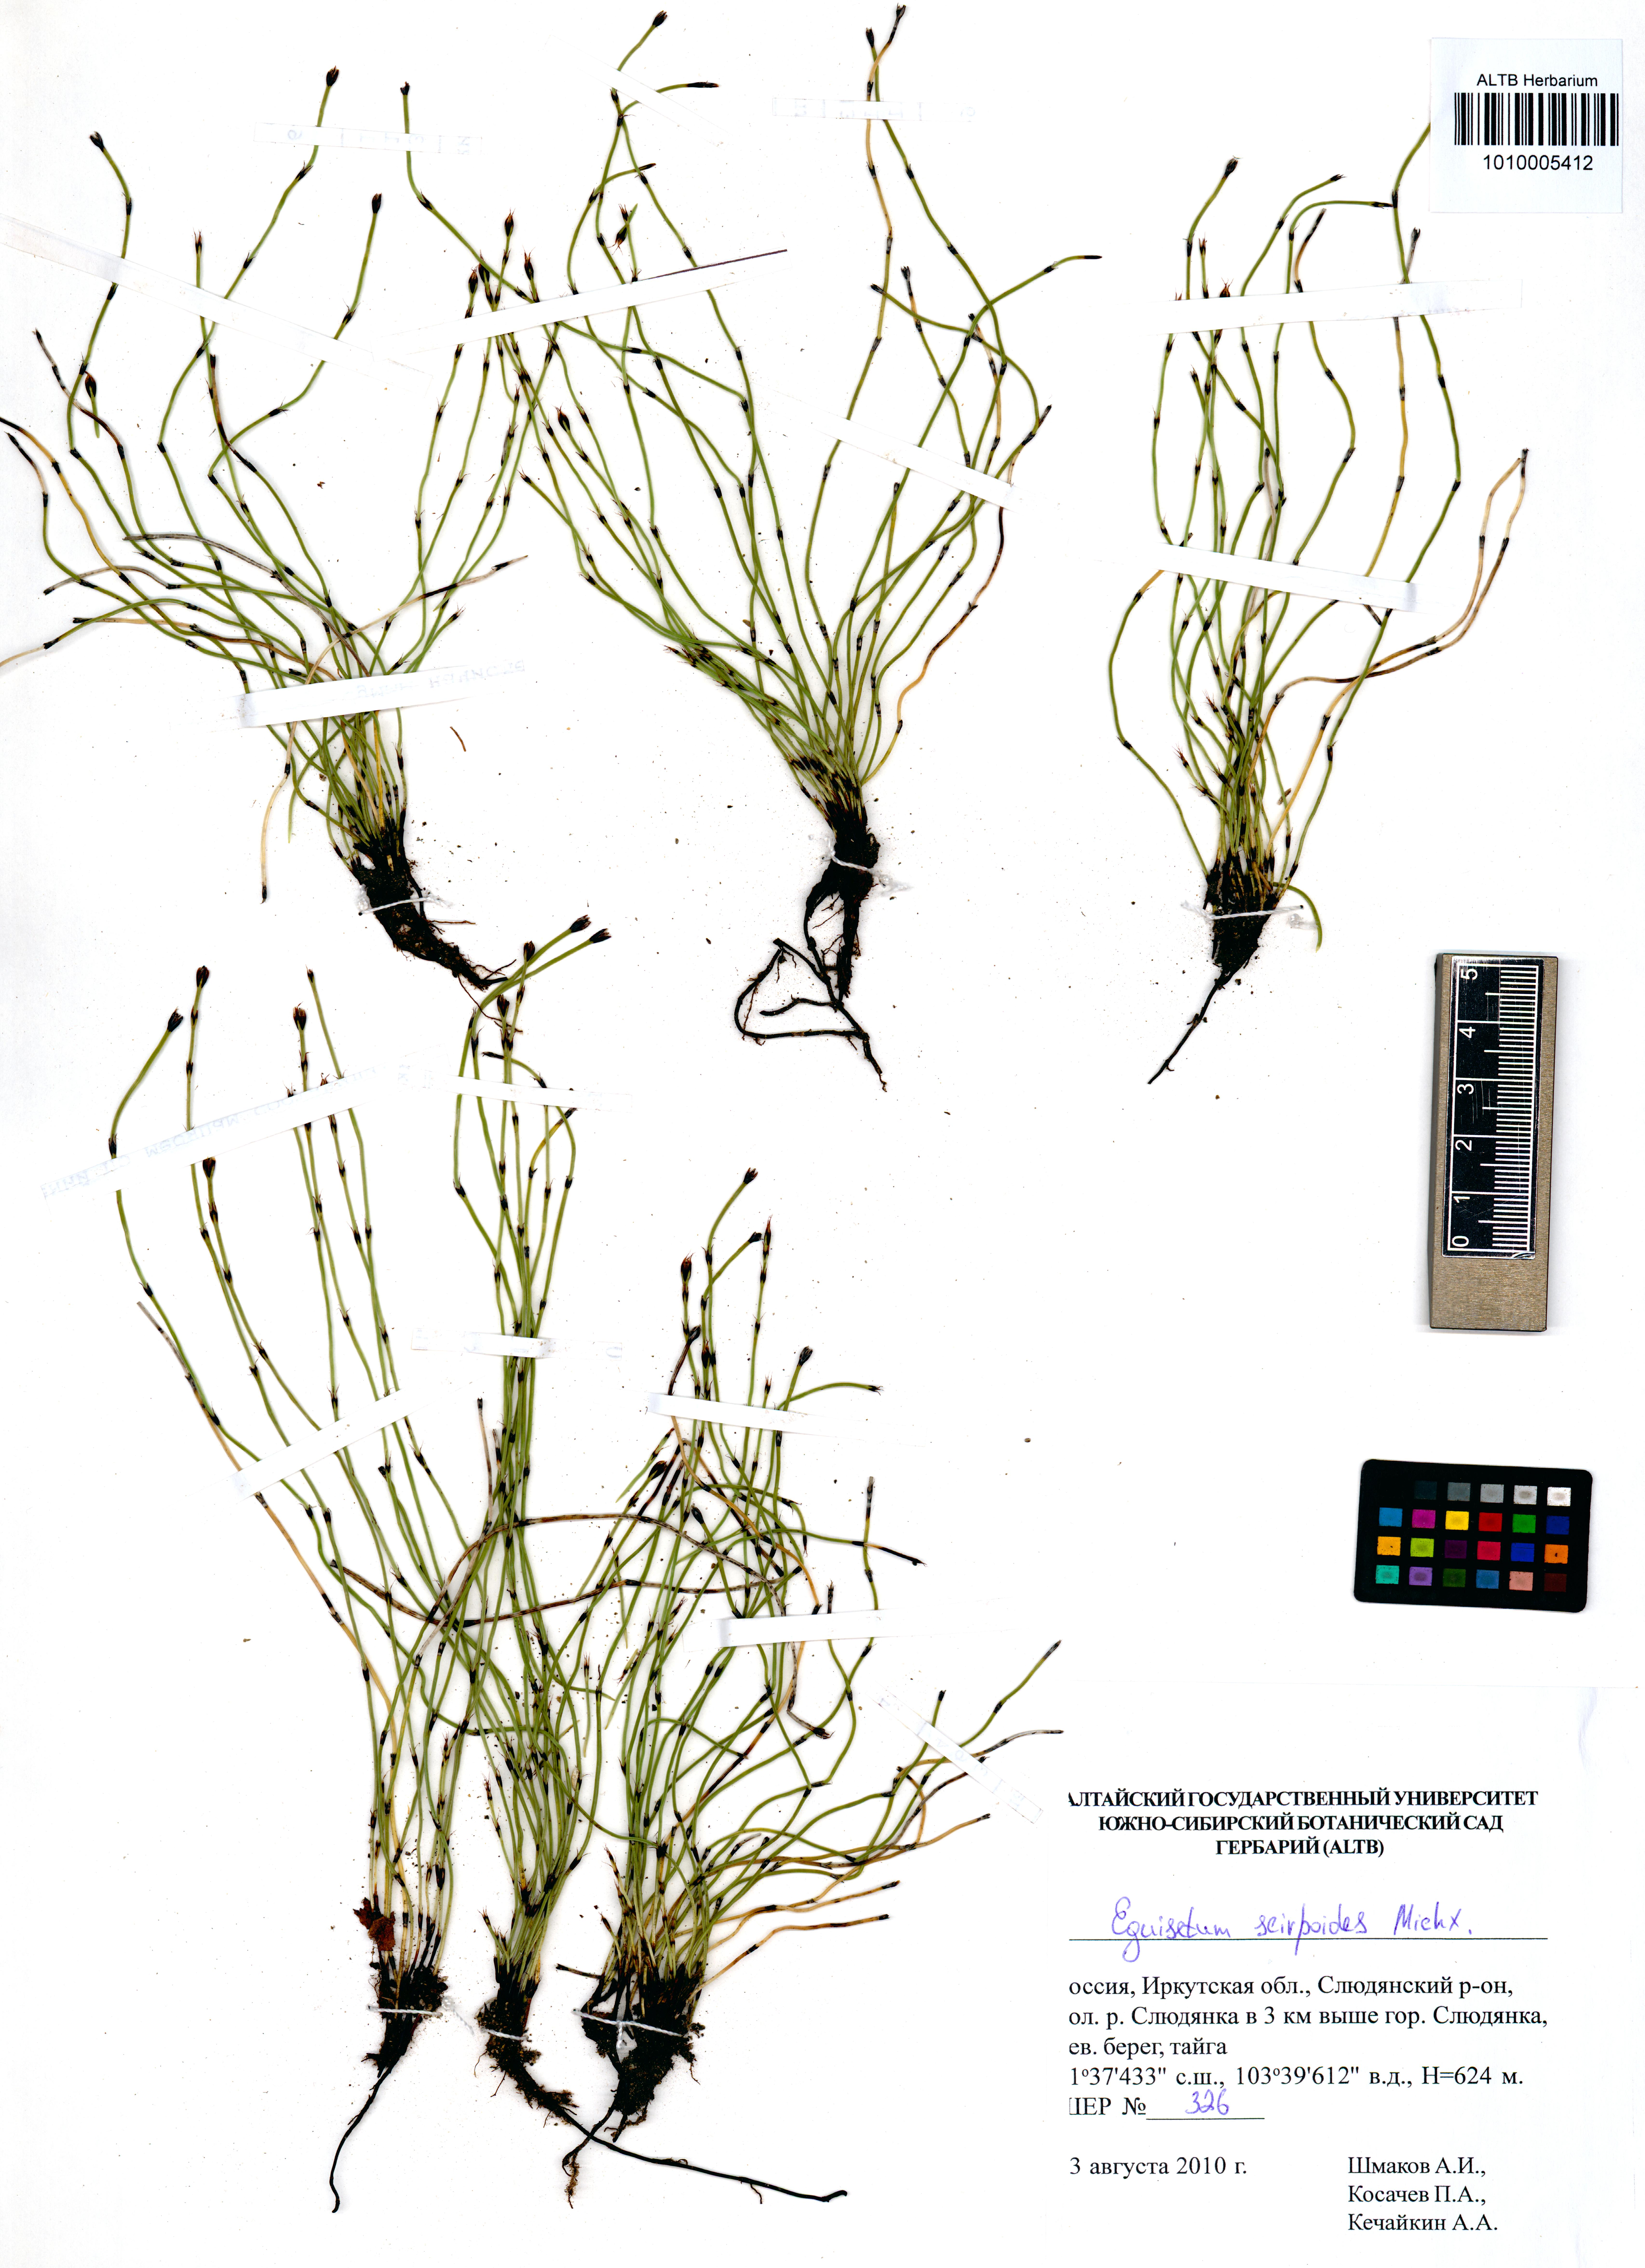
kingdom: Plantae
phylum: Tracheophyta
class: Polypodiopsida
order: Equisetales
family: Equisetaceae
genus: Equisetum
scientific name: Equisetum scirpoides
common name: Delicate horsetail
